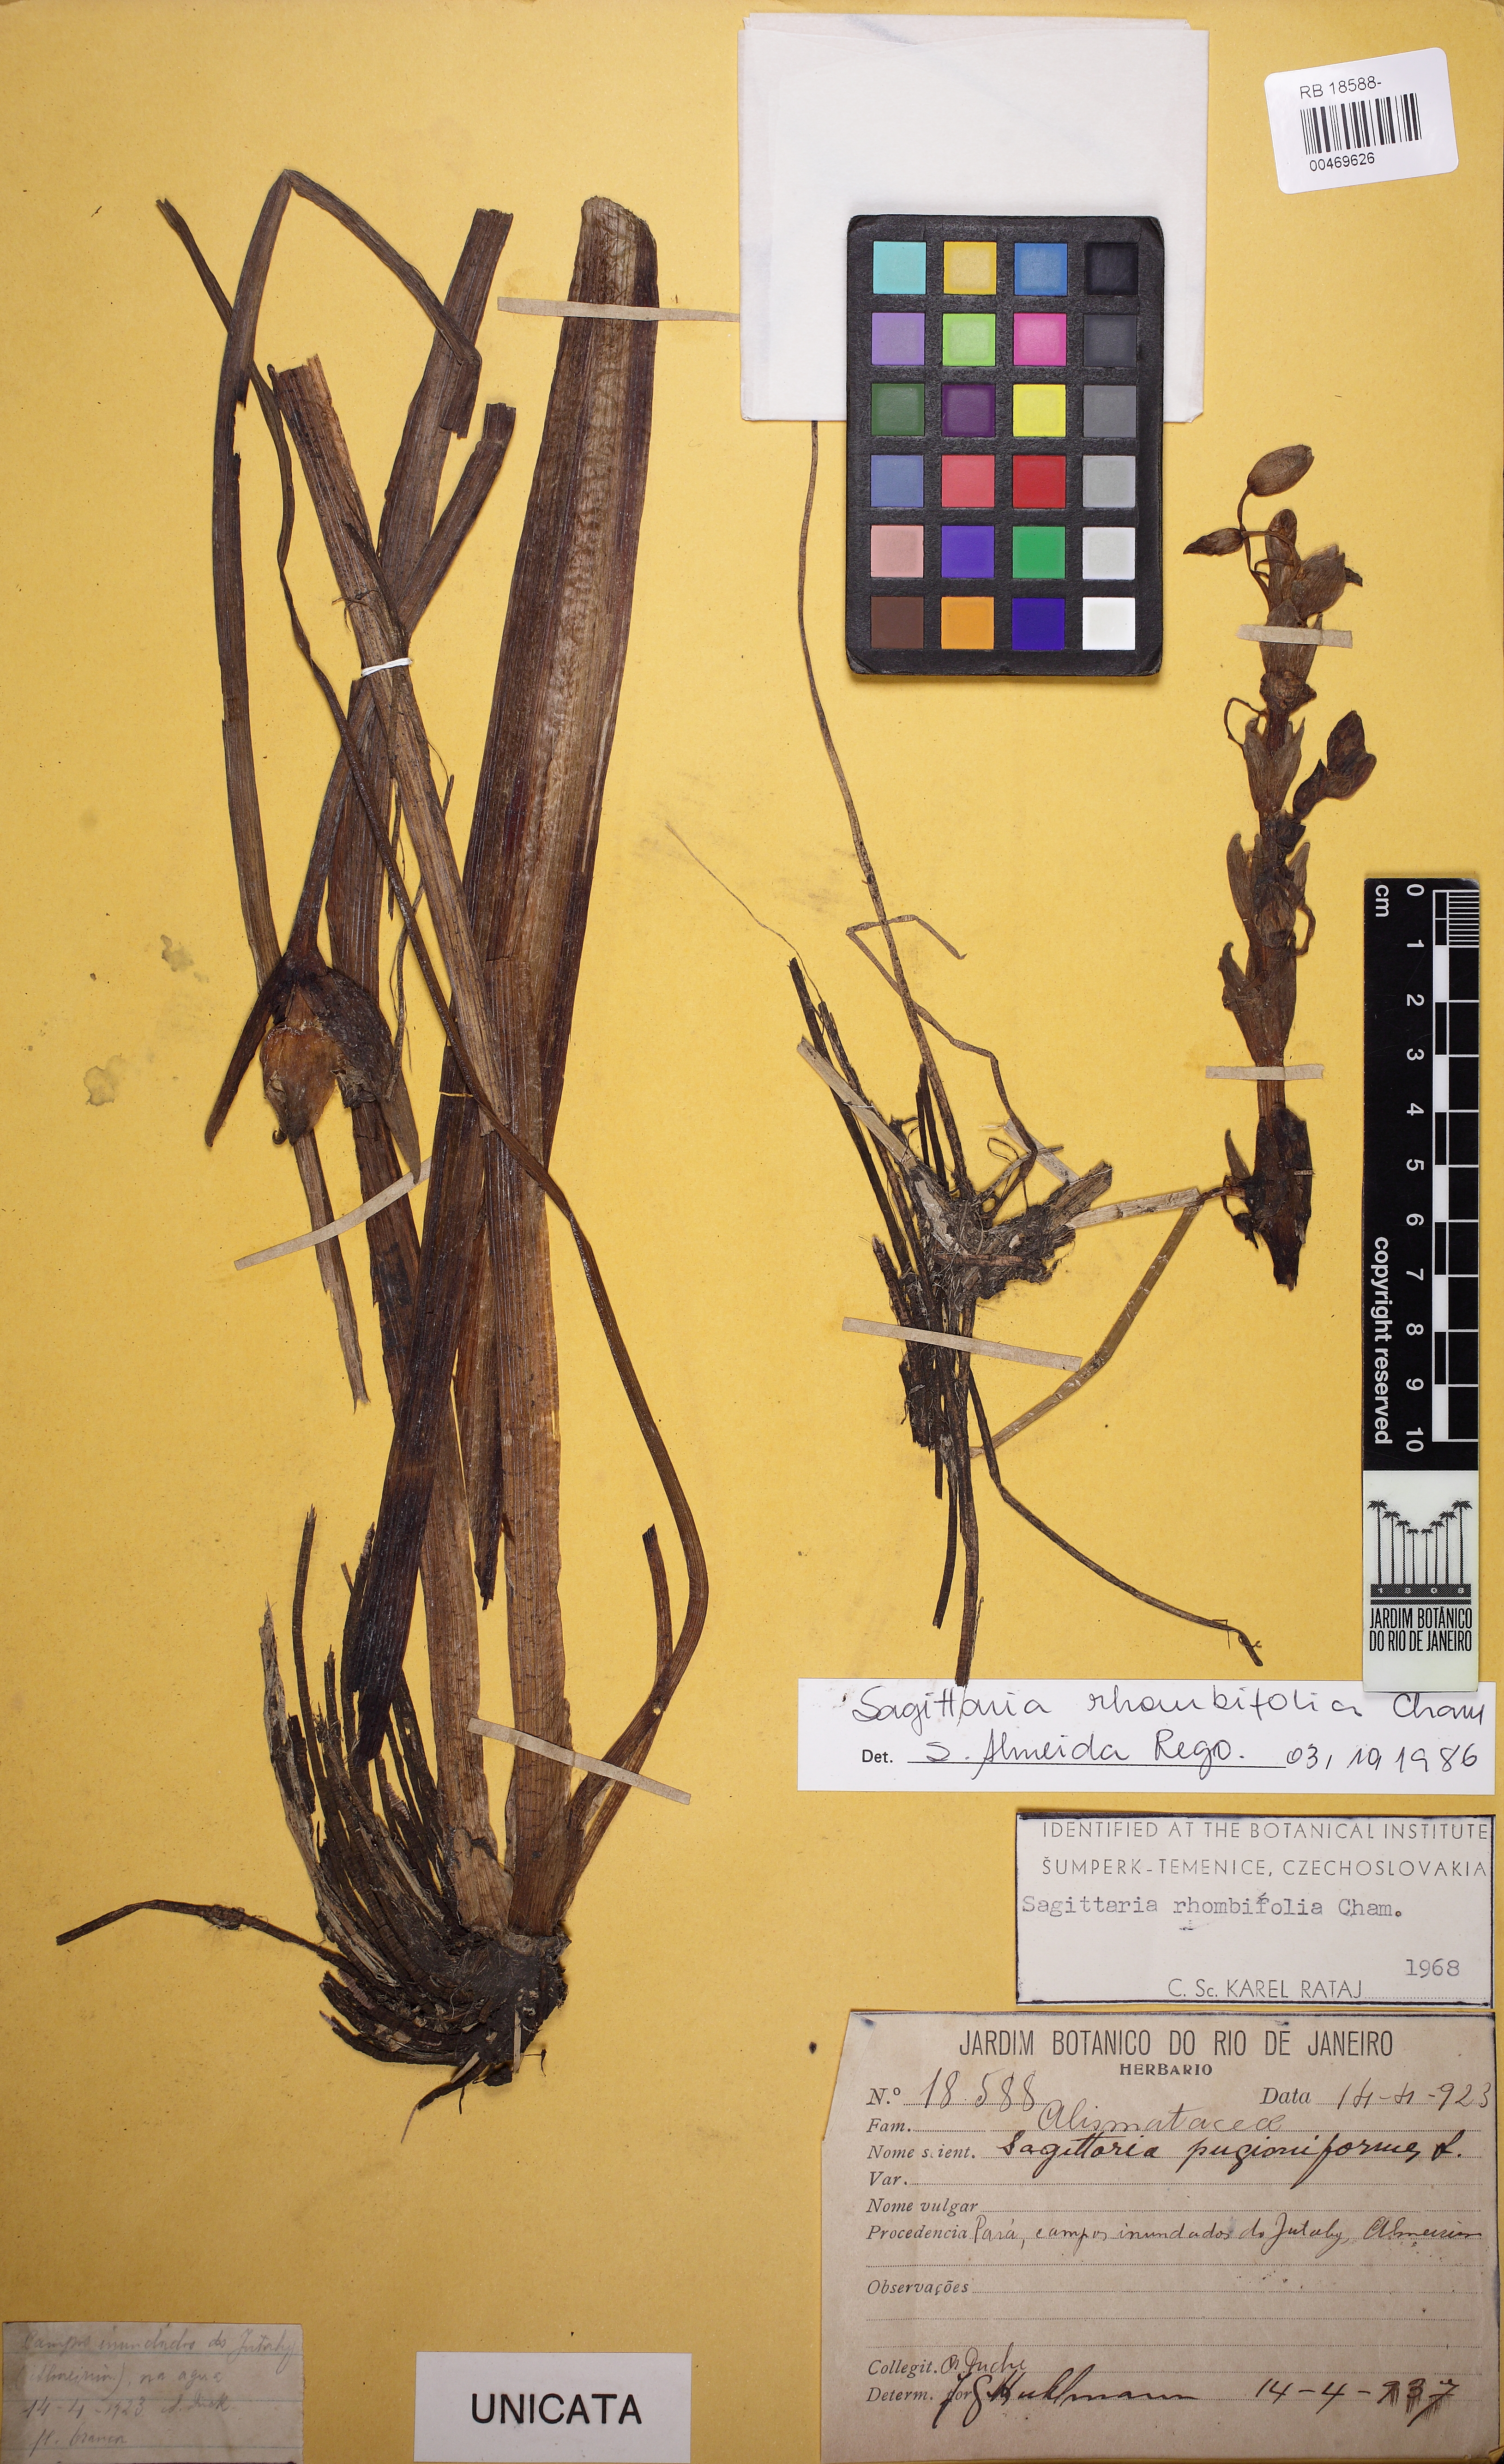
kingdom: Plantae
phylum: Tracheophyta
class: Liliopsida
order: Alismatales
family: Alismataceae
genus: Sagittaria
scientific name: Sagittaria rhombifolia
